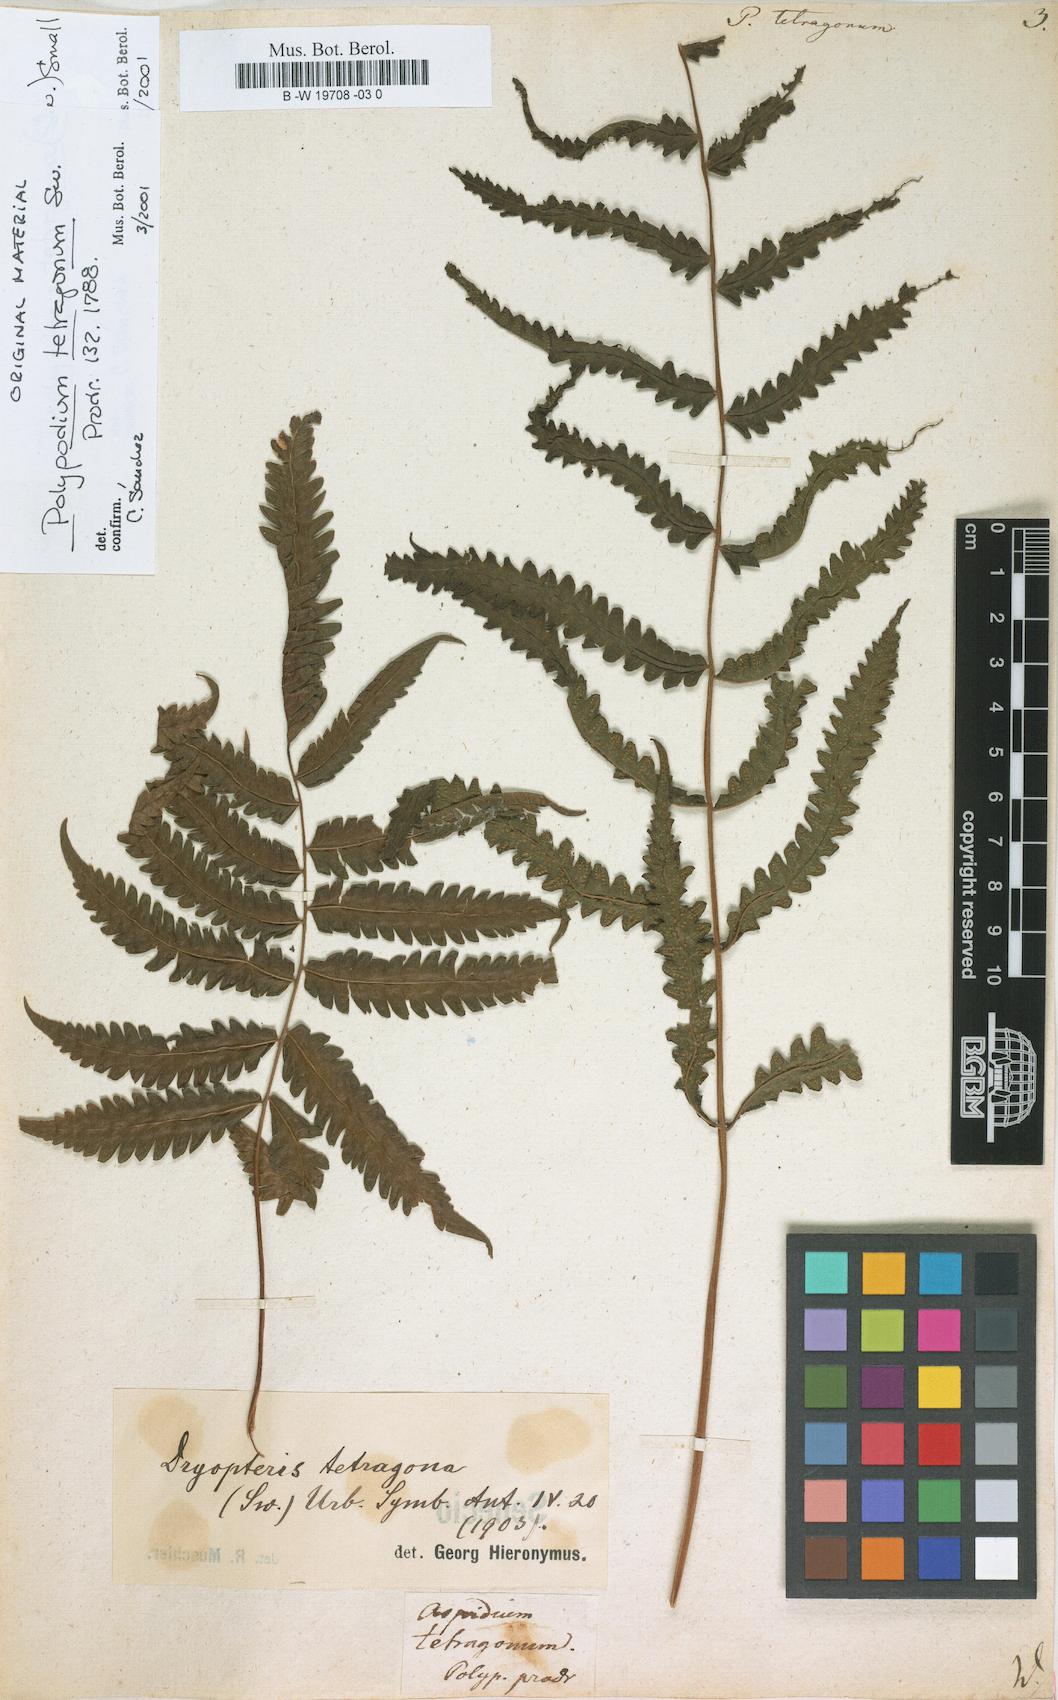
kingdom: Plantae
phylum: Tracheophyta
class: Polypodiopsida
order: Polypodiales
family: Thelypteridaceae
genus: Goniopteris
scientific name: Goniopteris tetragona
